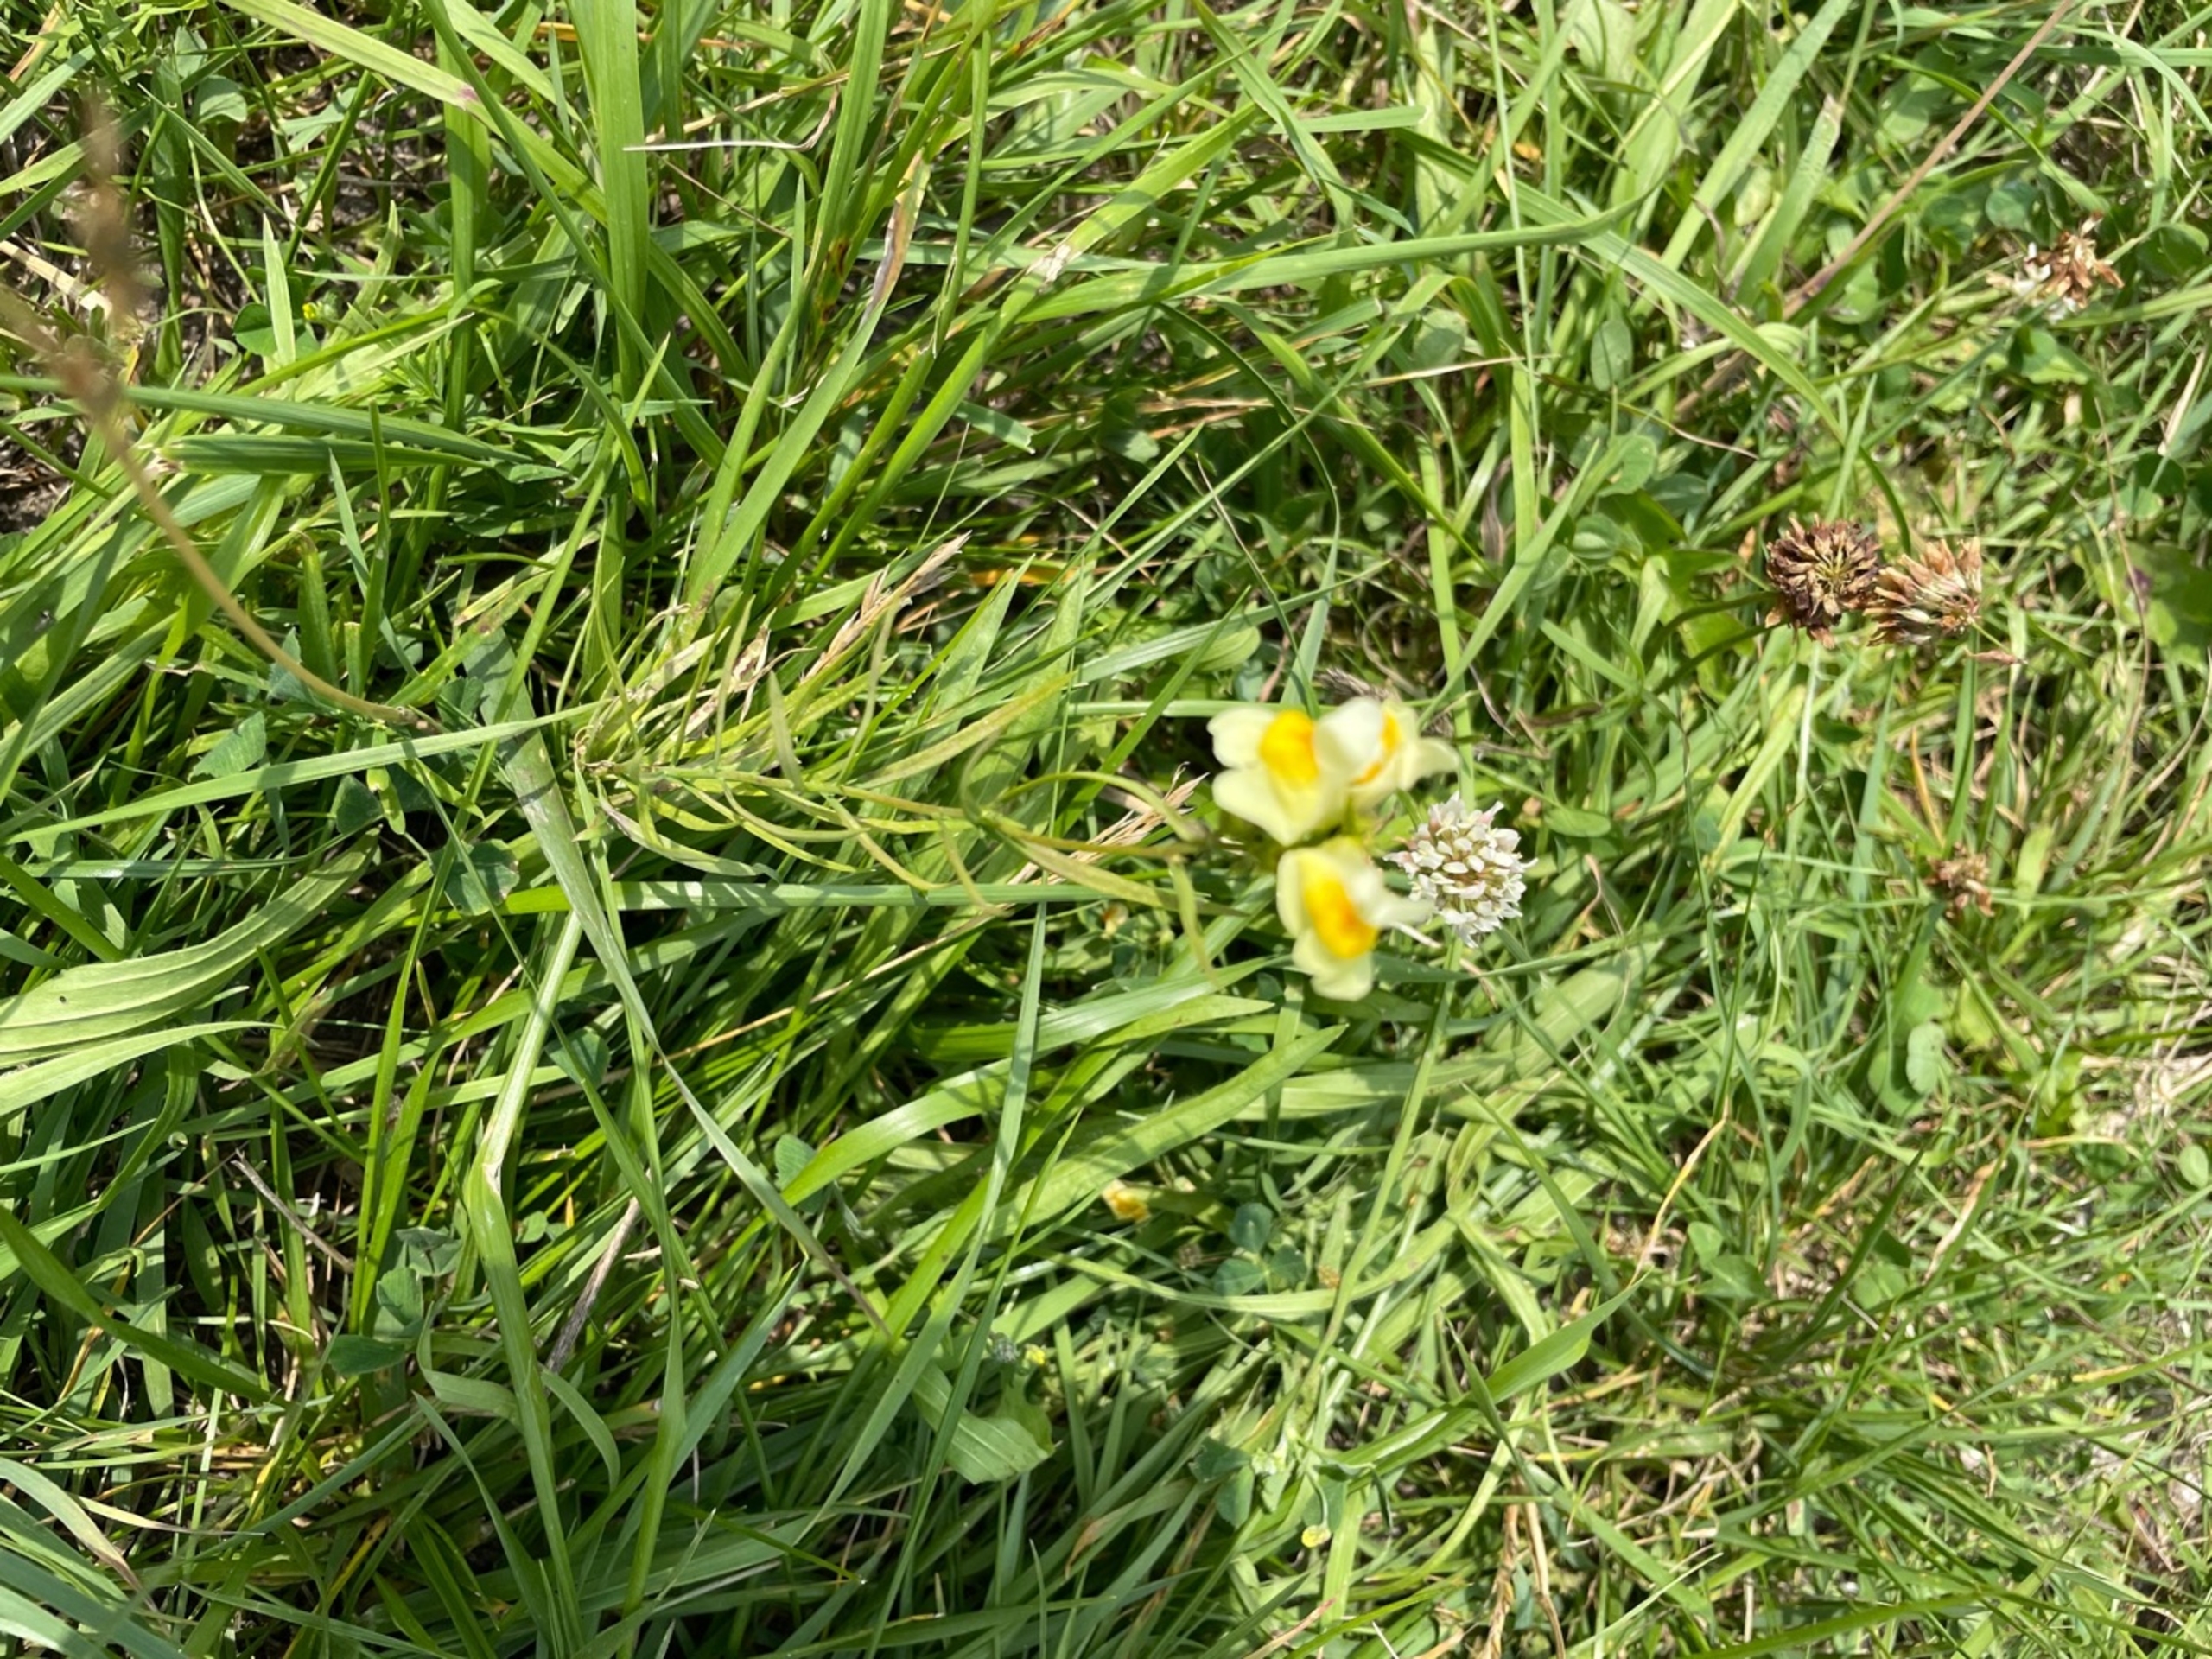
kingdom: Plantae
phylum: Tracheophyta
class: Magnoliopsida
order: Lamiales
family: Plantaginaceae
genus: Linaria
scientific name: Linaria vulgaris
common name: Almindelig torskemund
